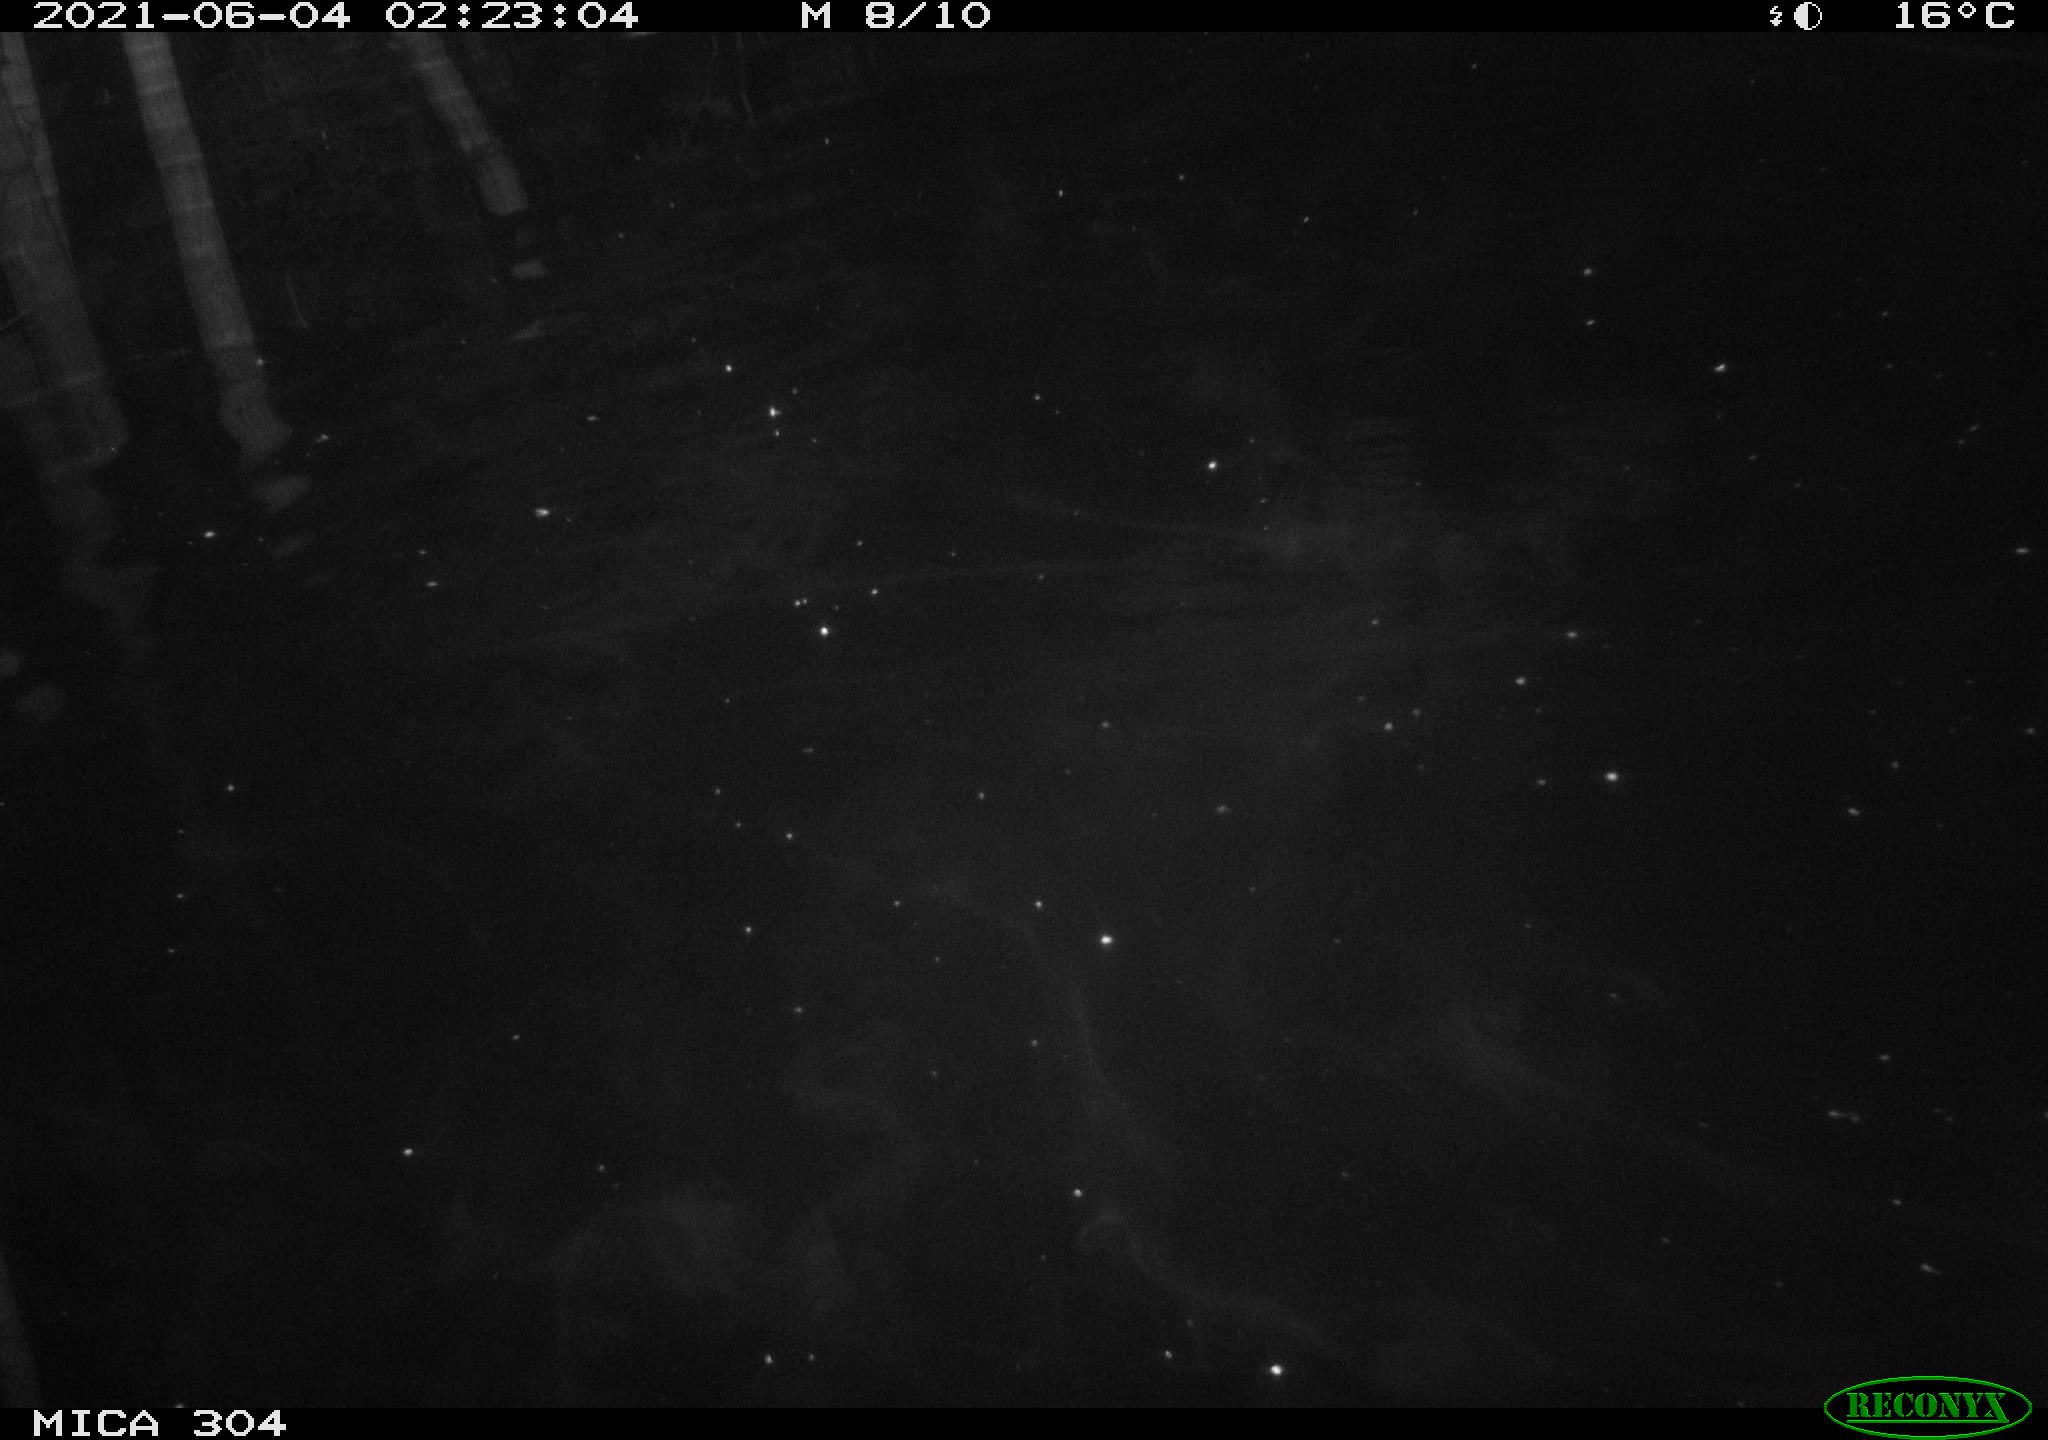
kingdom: Animalia
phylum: Chordata
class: Aves
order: Anseriformes
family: Anatidae
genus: Anas
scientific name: Anas platyrhynchos
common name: Mallard
